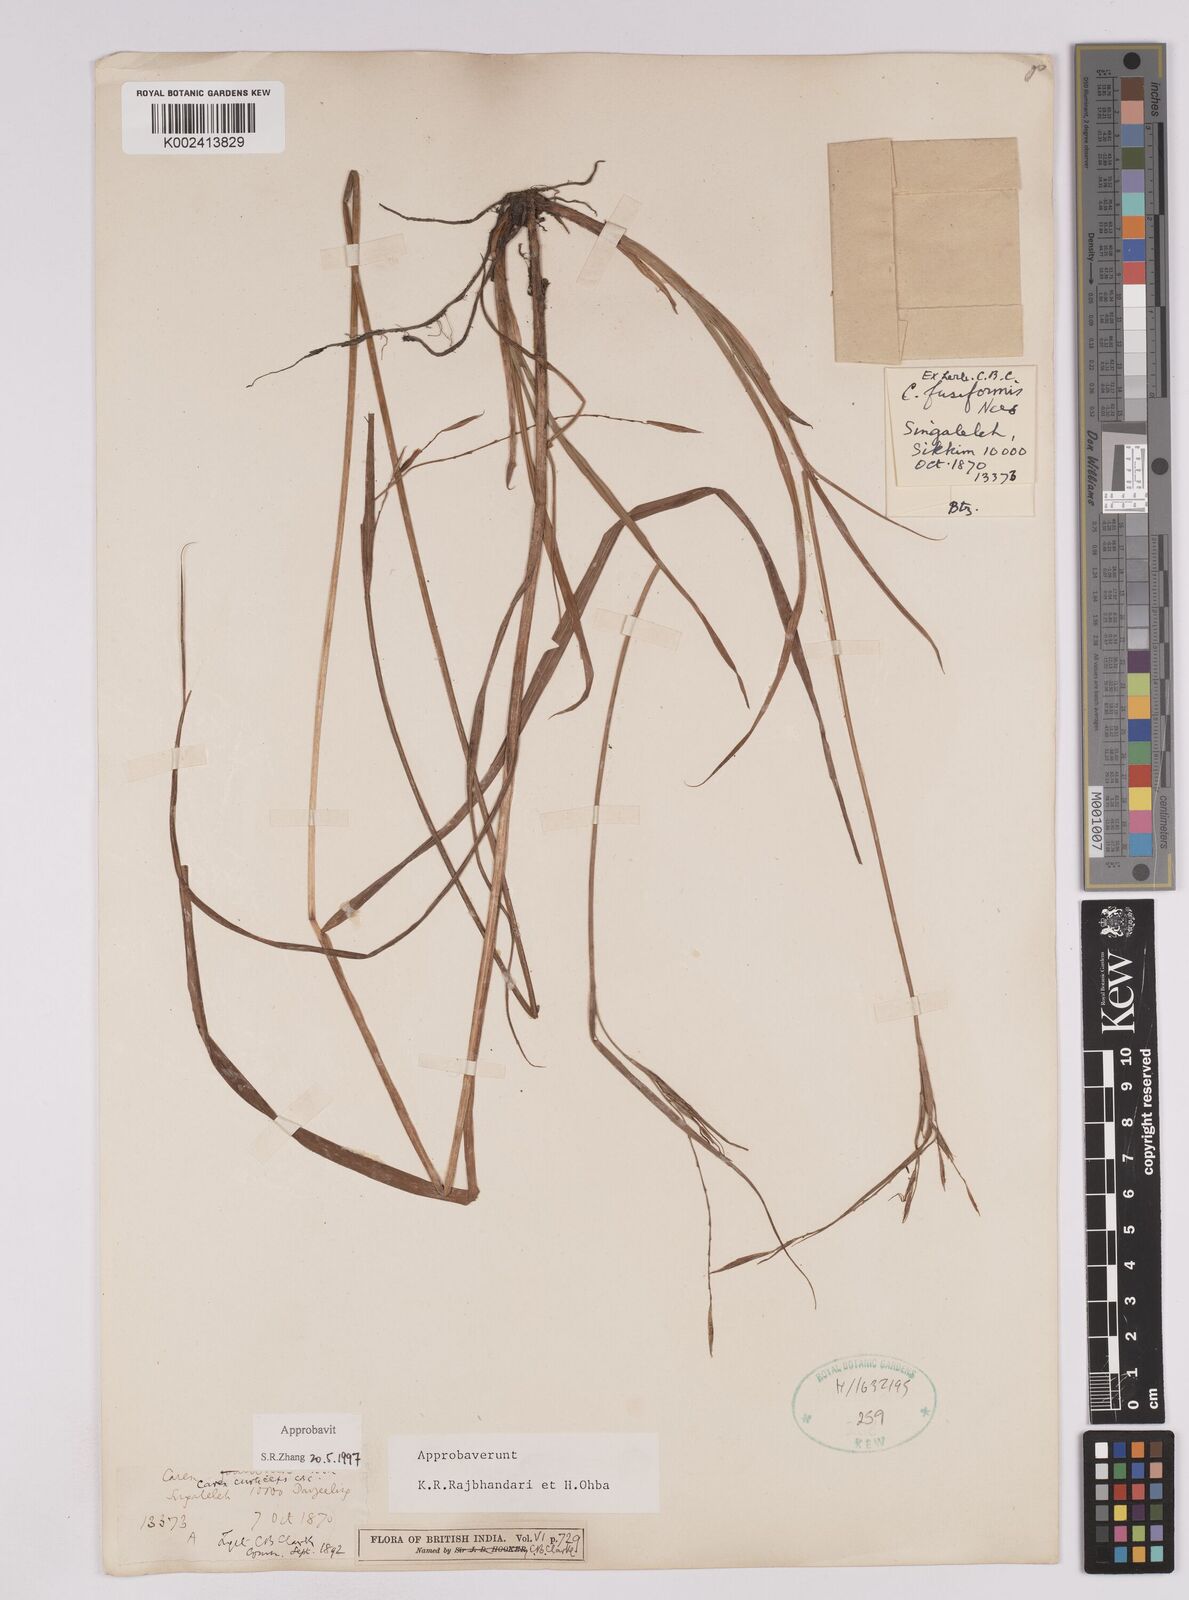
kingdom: Plantae
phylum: Tracheophyta
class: Liliopsida
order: Poales
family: Cyperaceae
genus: Carex
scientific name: Carex curticeps
